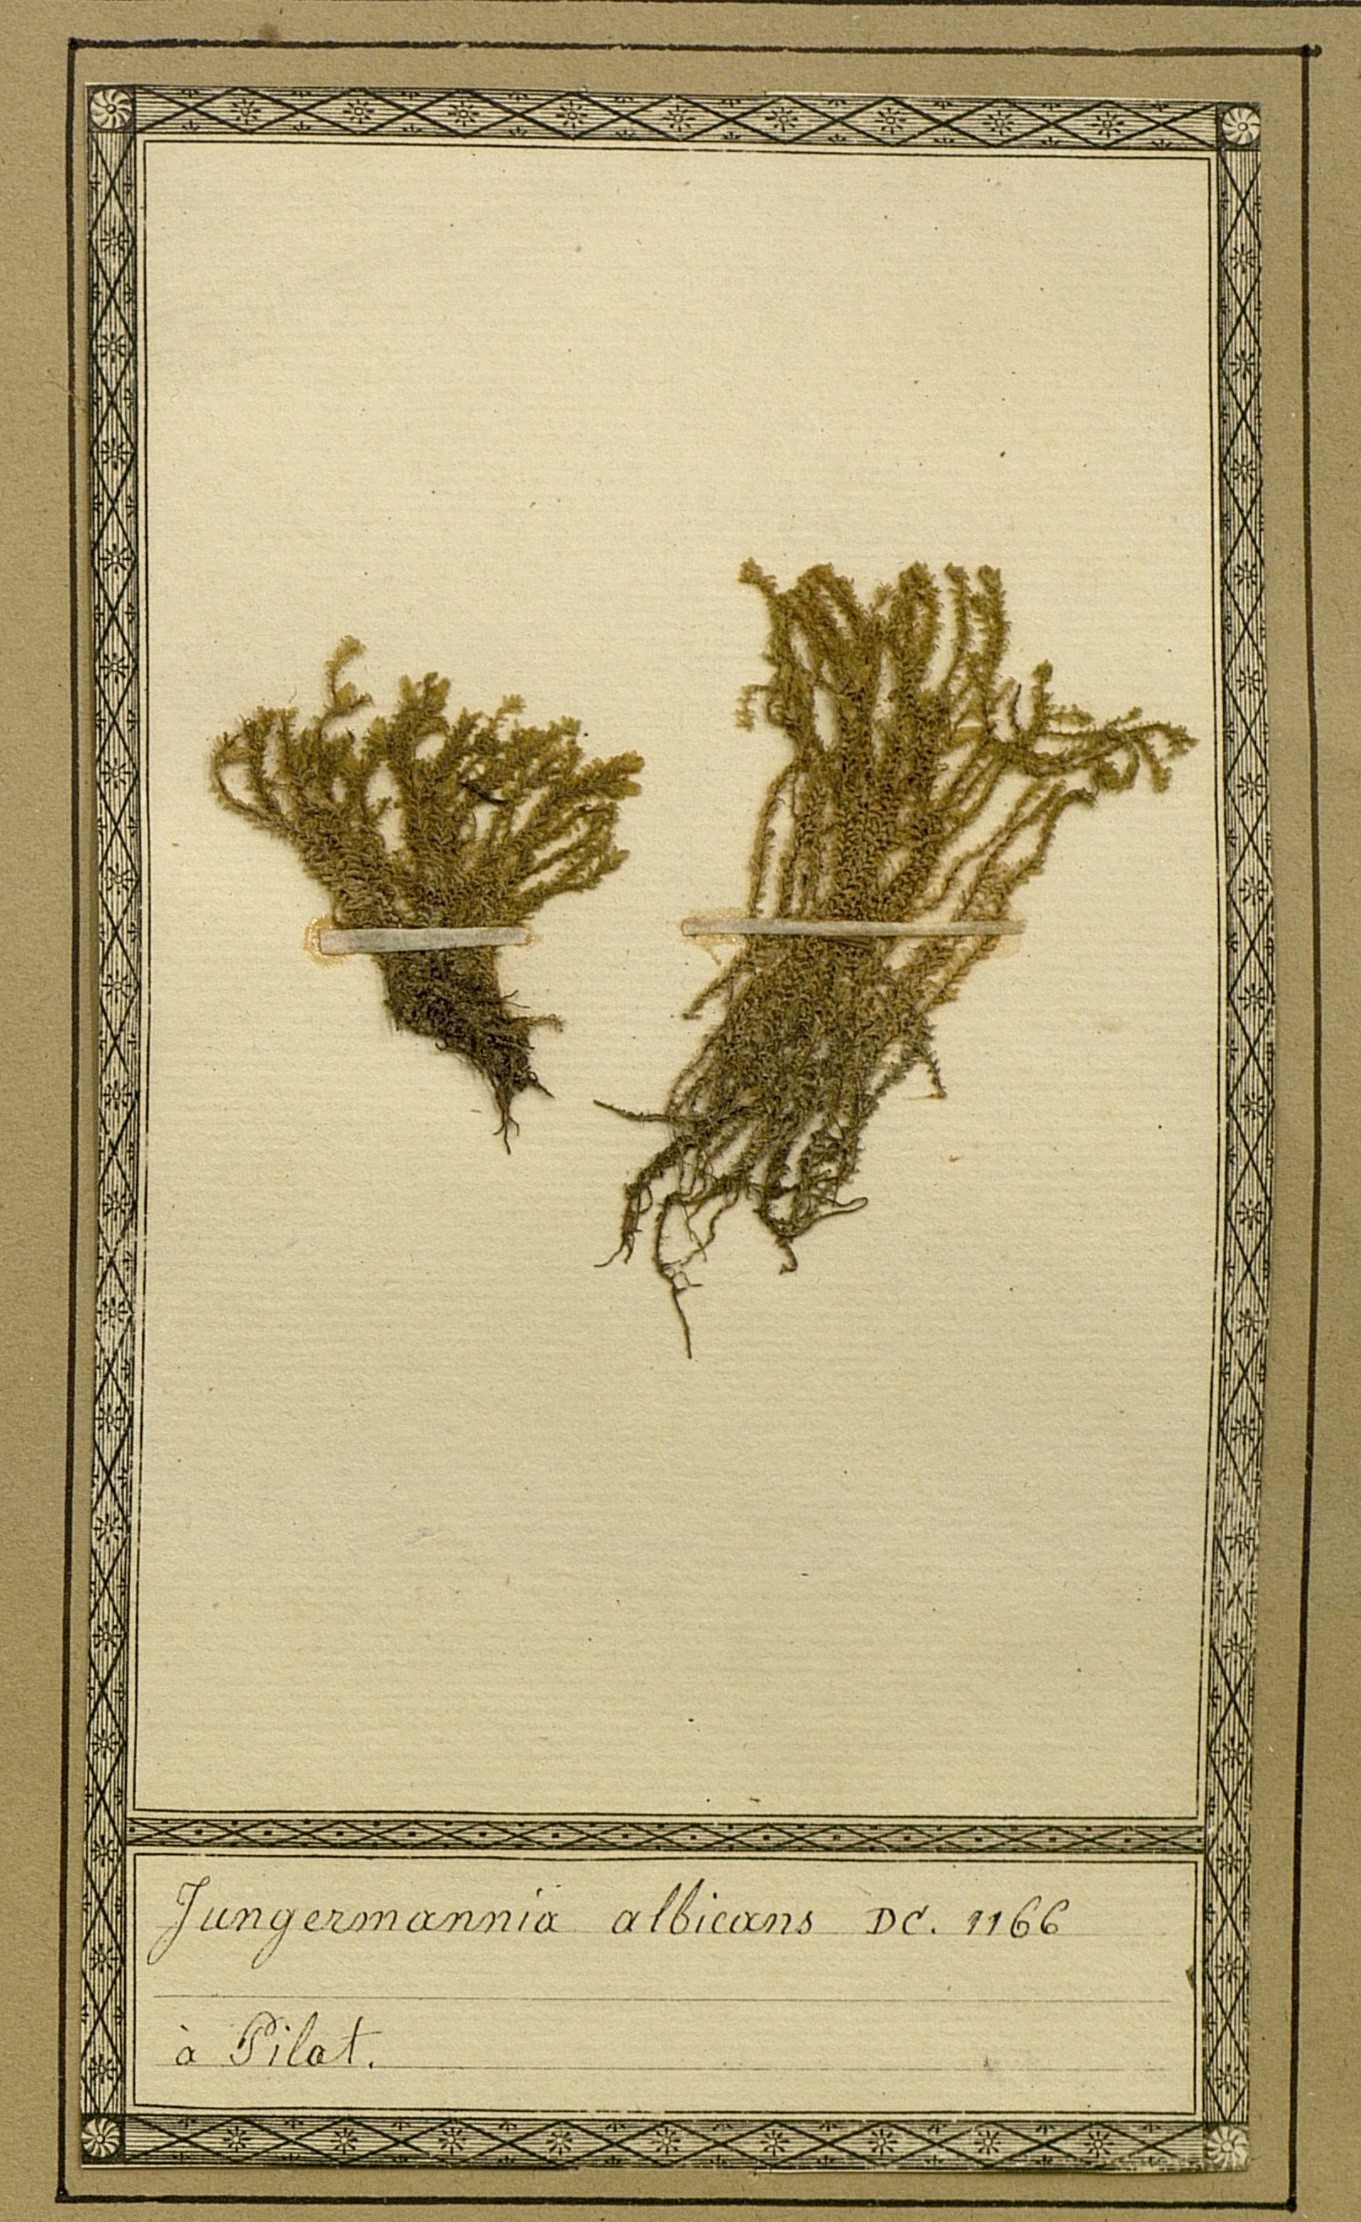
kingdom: Plantae
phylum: Marchantiophyta
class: Jungermanniopsida
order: Jungermanniales
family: Scapaniaceae
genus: Diplophyllum
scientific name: Diplophyllum albicans
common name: White earwort
